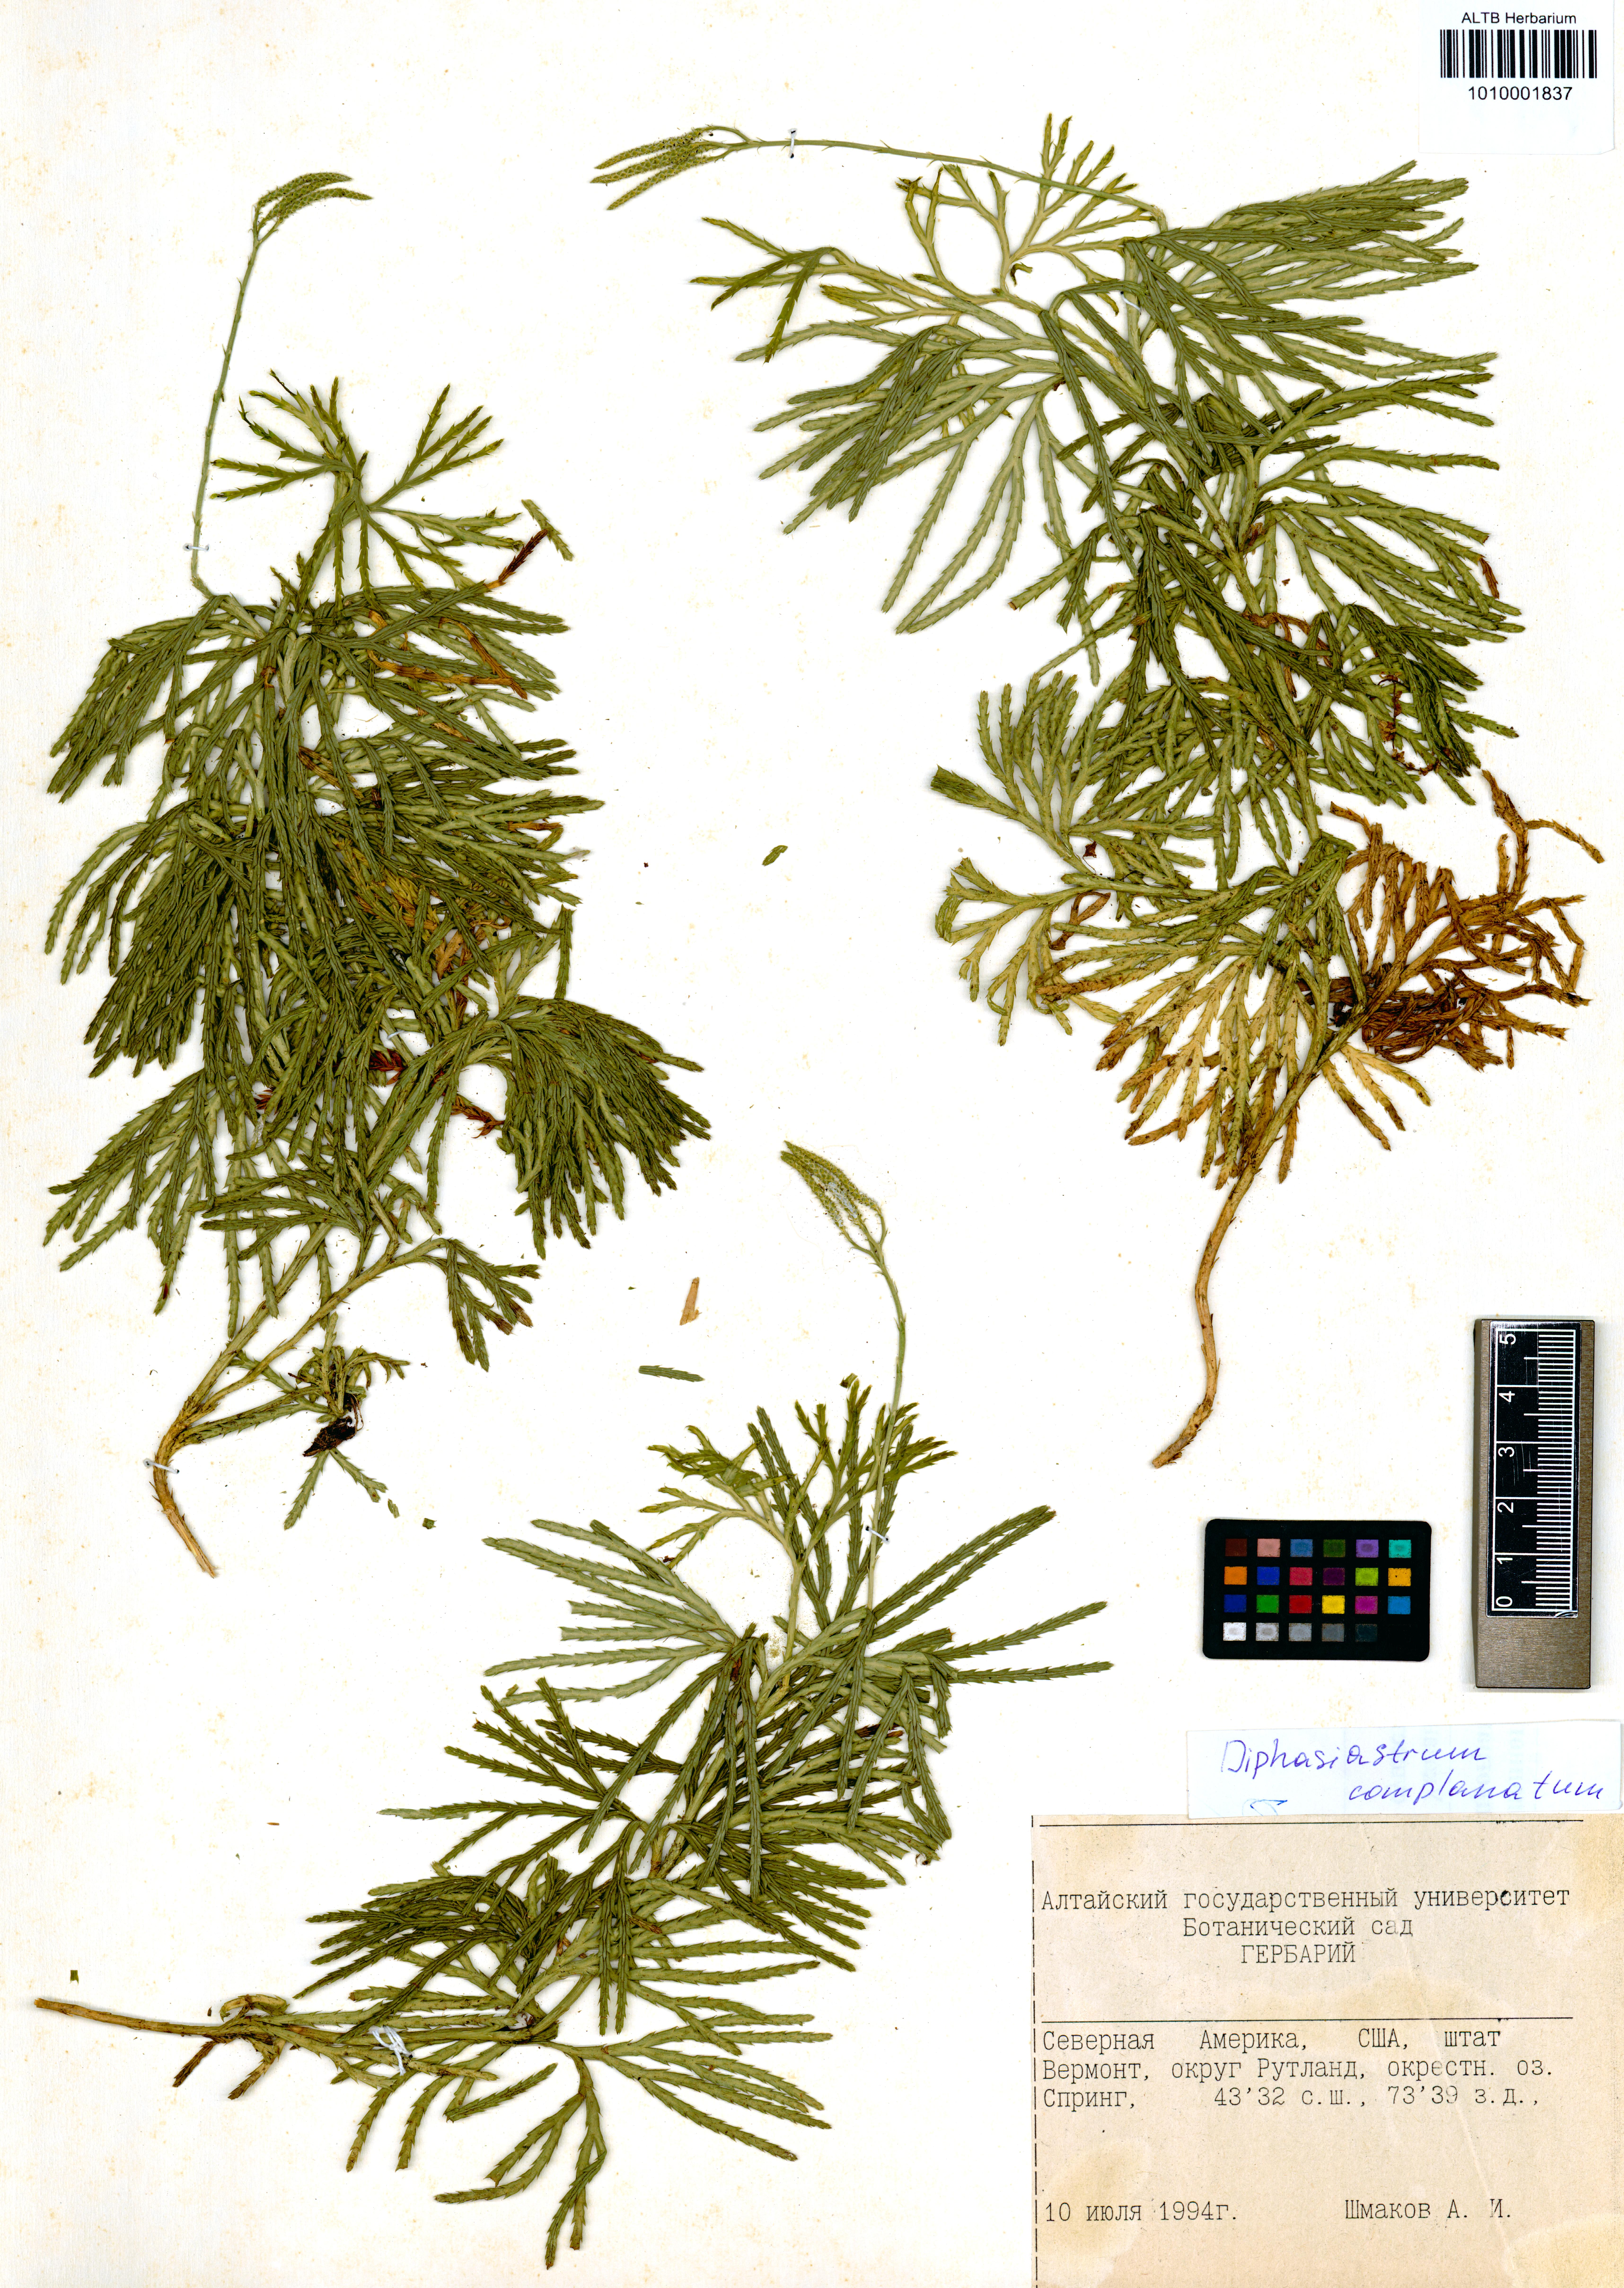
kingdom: Plantae
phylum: Tracheophyta
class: Lycopodiopsida
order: Lycopodiales
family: Lycopodiaceae
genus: Diphasiastrum
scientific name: Diphasiastrum complanatum
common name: Northern running-pine
